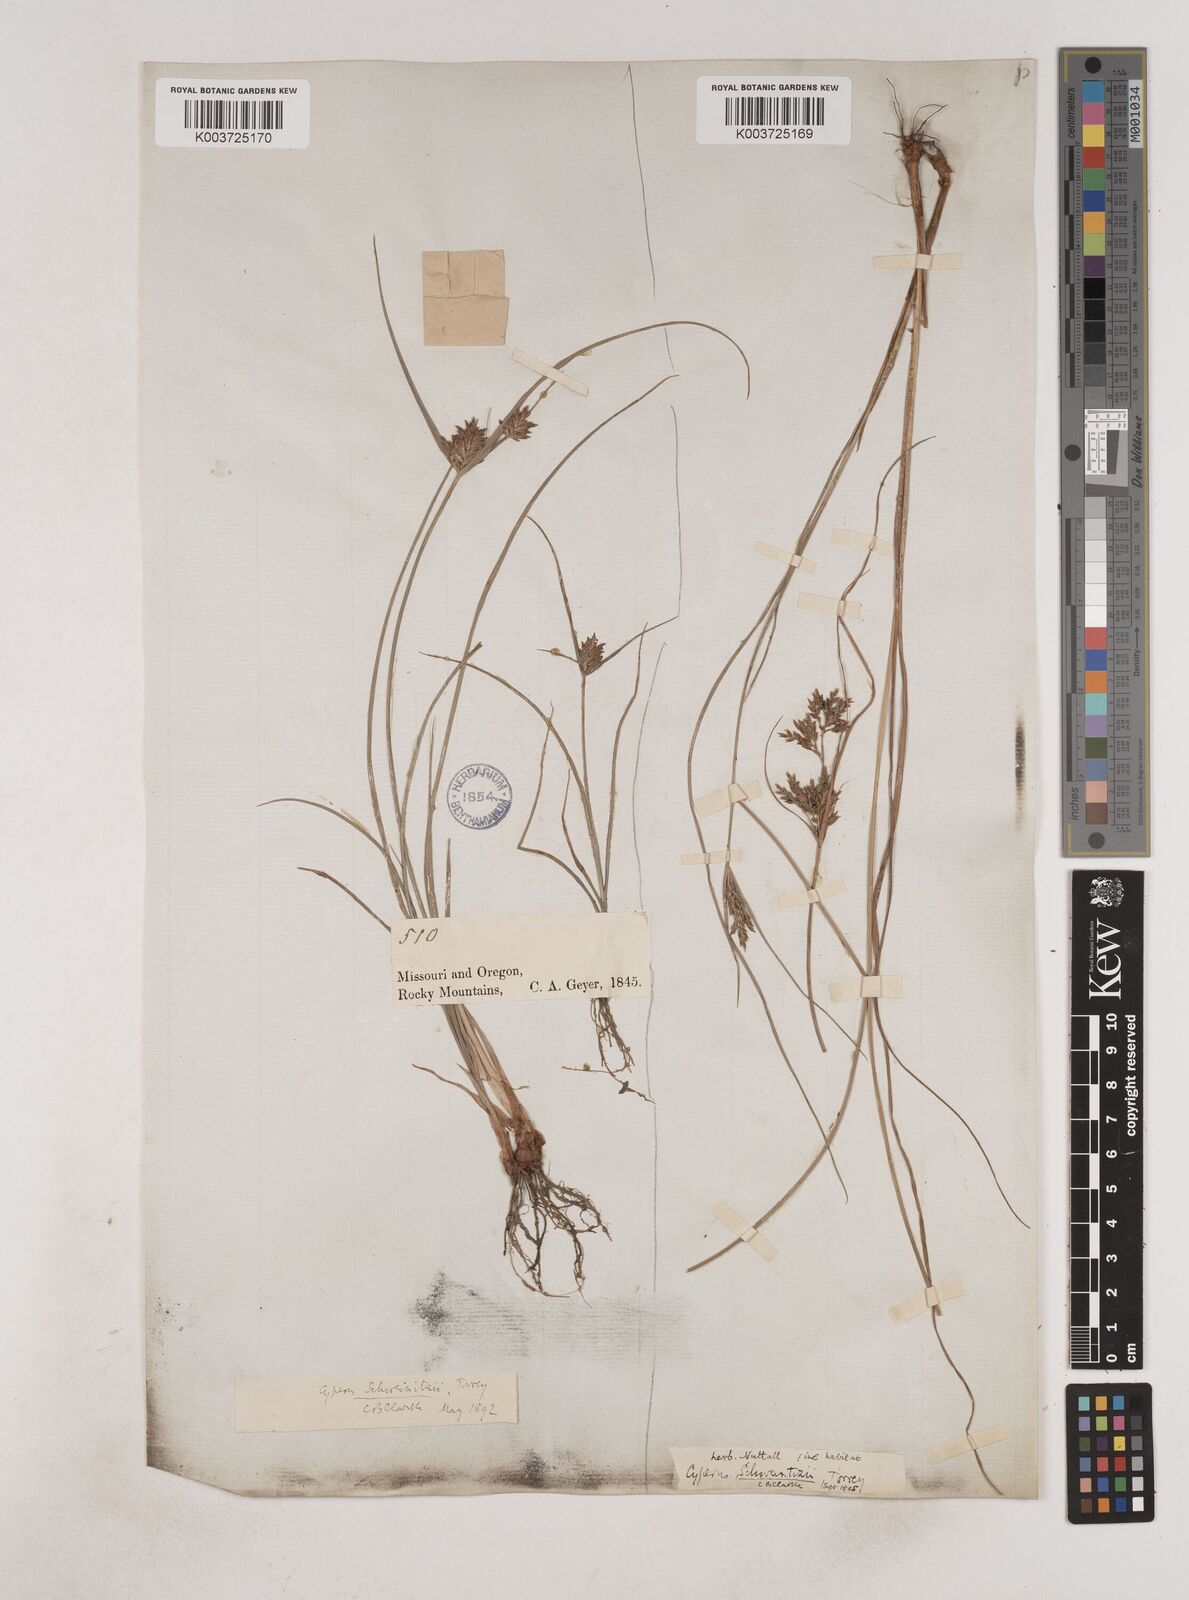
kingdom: Plantae
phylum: Tracheophyta
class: Liliopsida
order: Poales
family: Cyperaceae
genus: Cyperus
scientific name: Cyperus schweinitzii
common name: Schweinitz's cyperus
